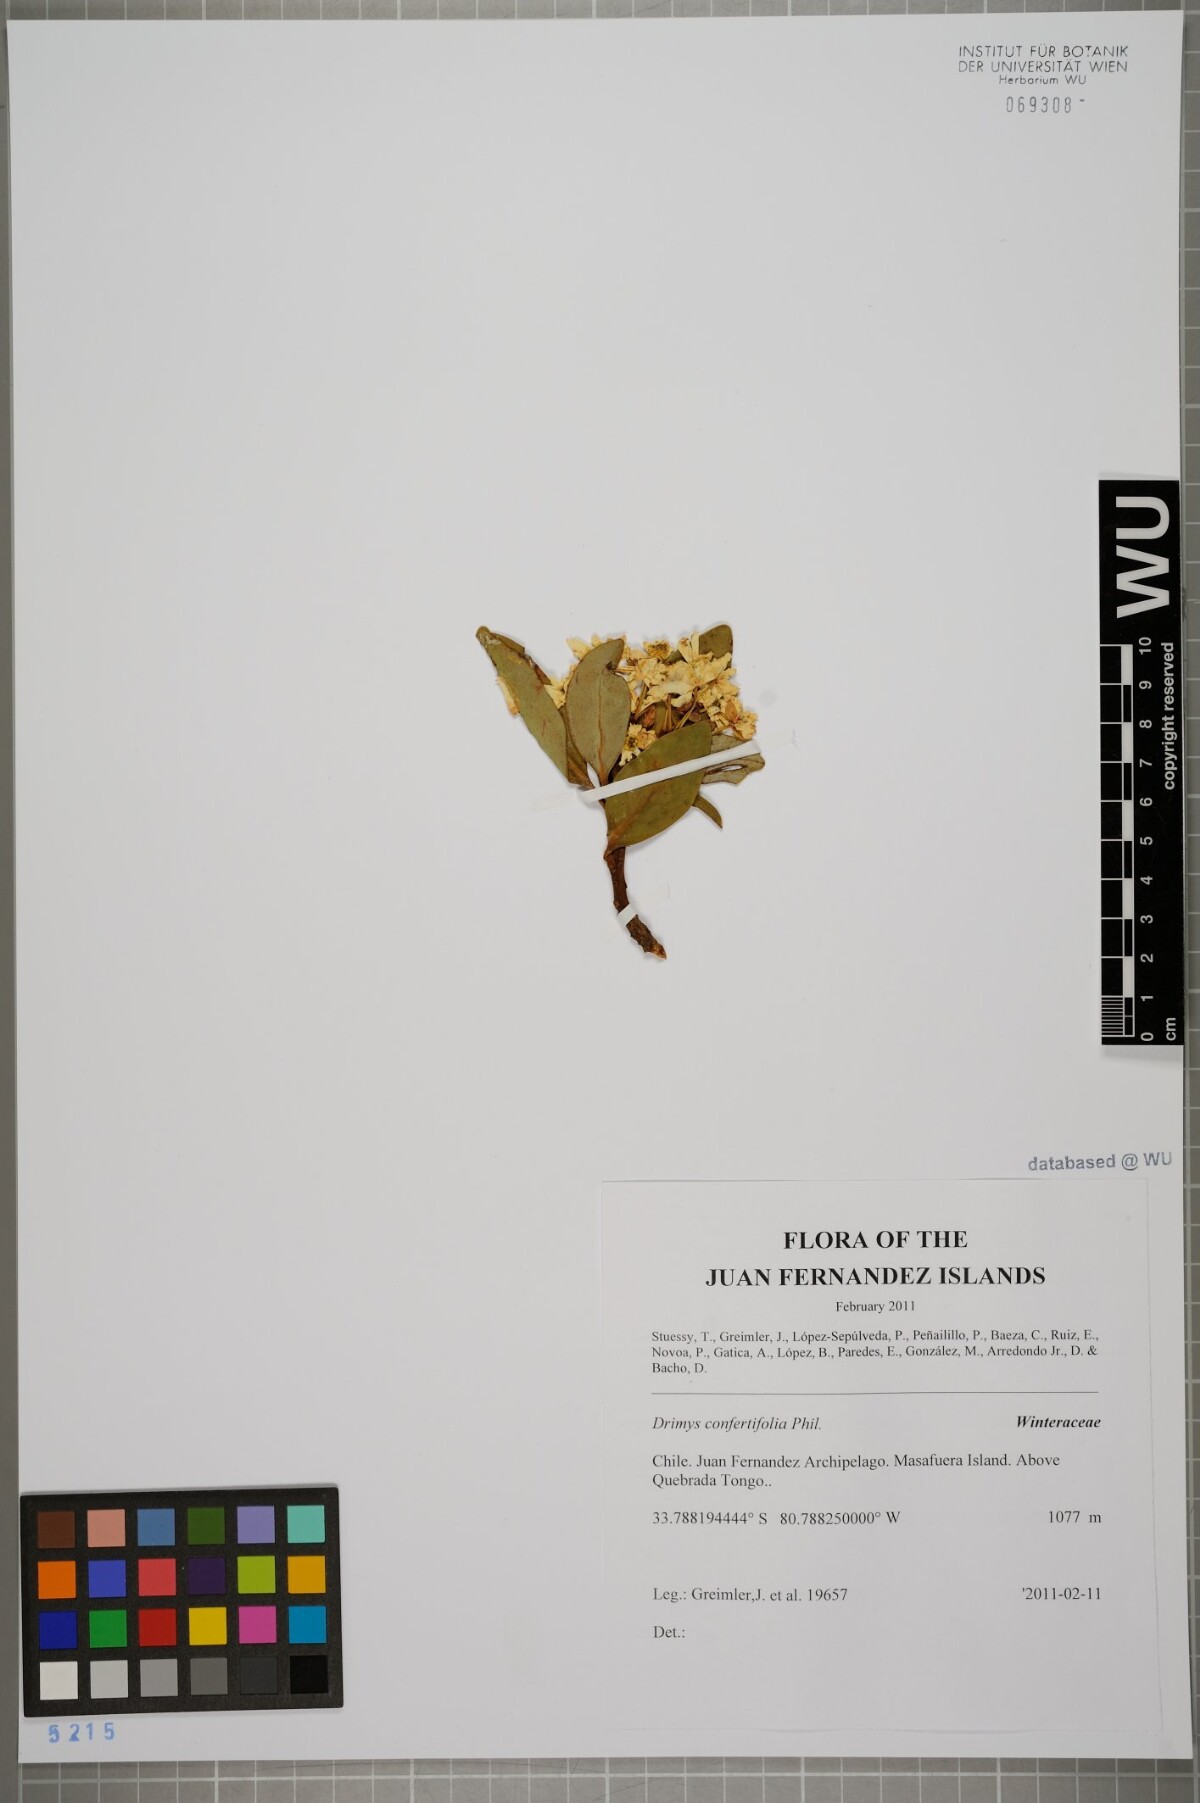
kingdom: Plantae
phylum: Tracheophyta
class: Magnoliopsida
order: Canellales
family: Winteraceae
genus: Drimys
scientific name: Drimys confertiflora
